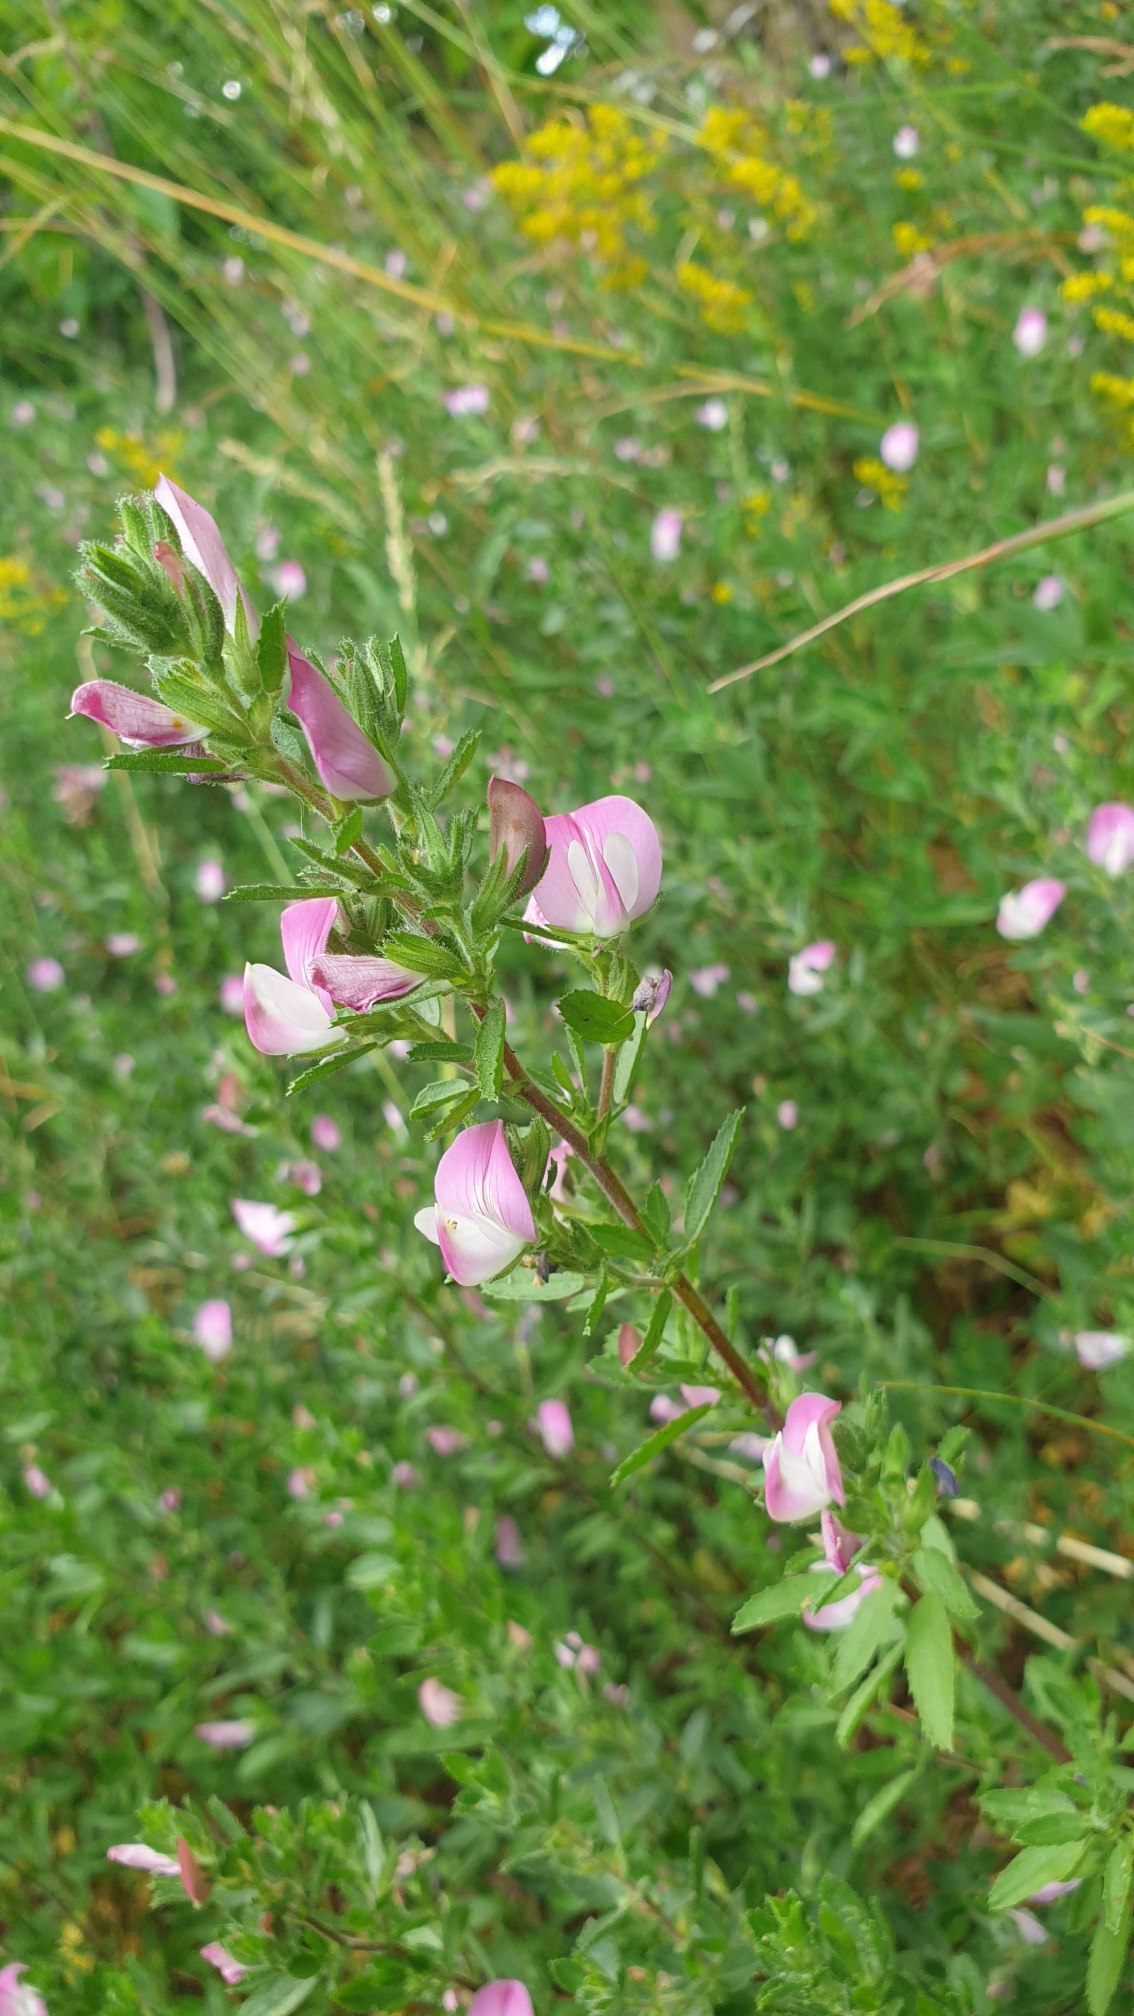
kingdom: Plantae
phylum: Tracheophyta
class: Magnoliopsida
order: Fabales
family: Fabaceae
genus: Ononis
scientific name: Ononis spinosa
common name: Mark-krageklo
